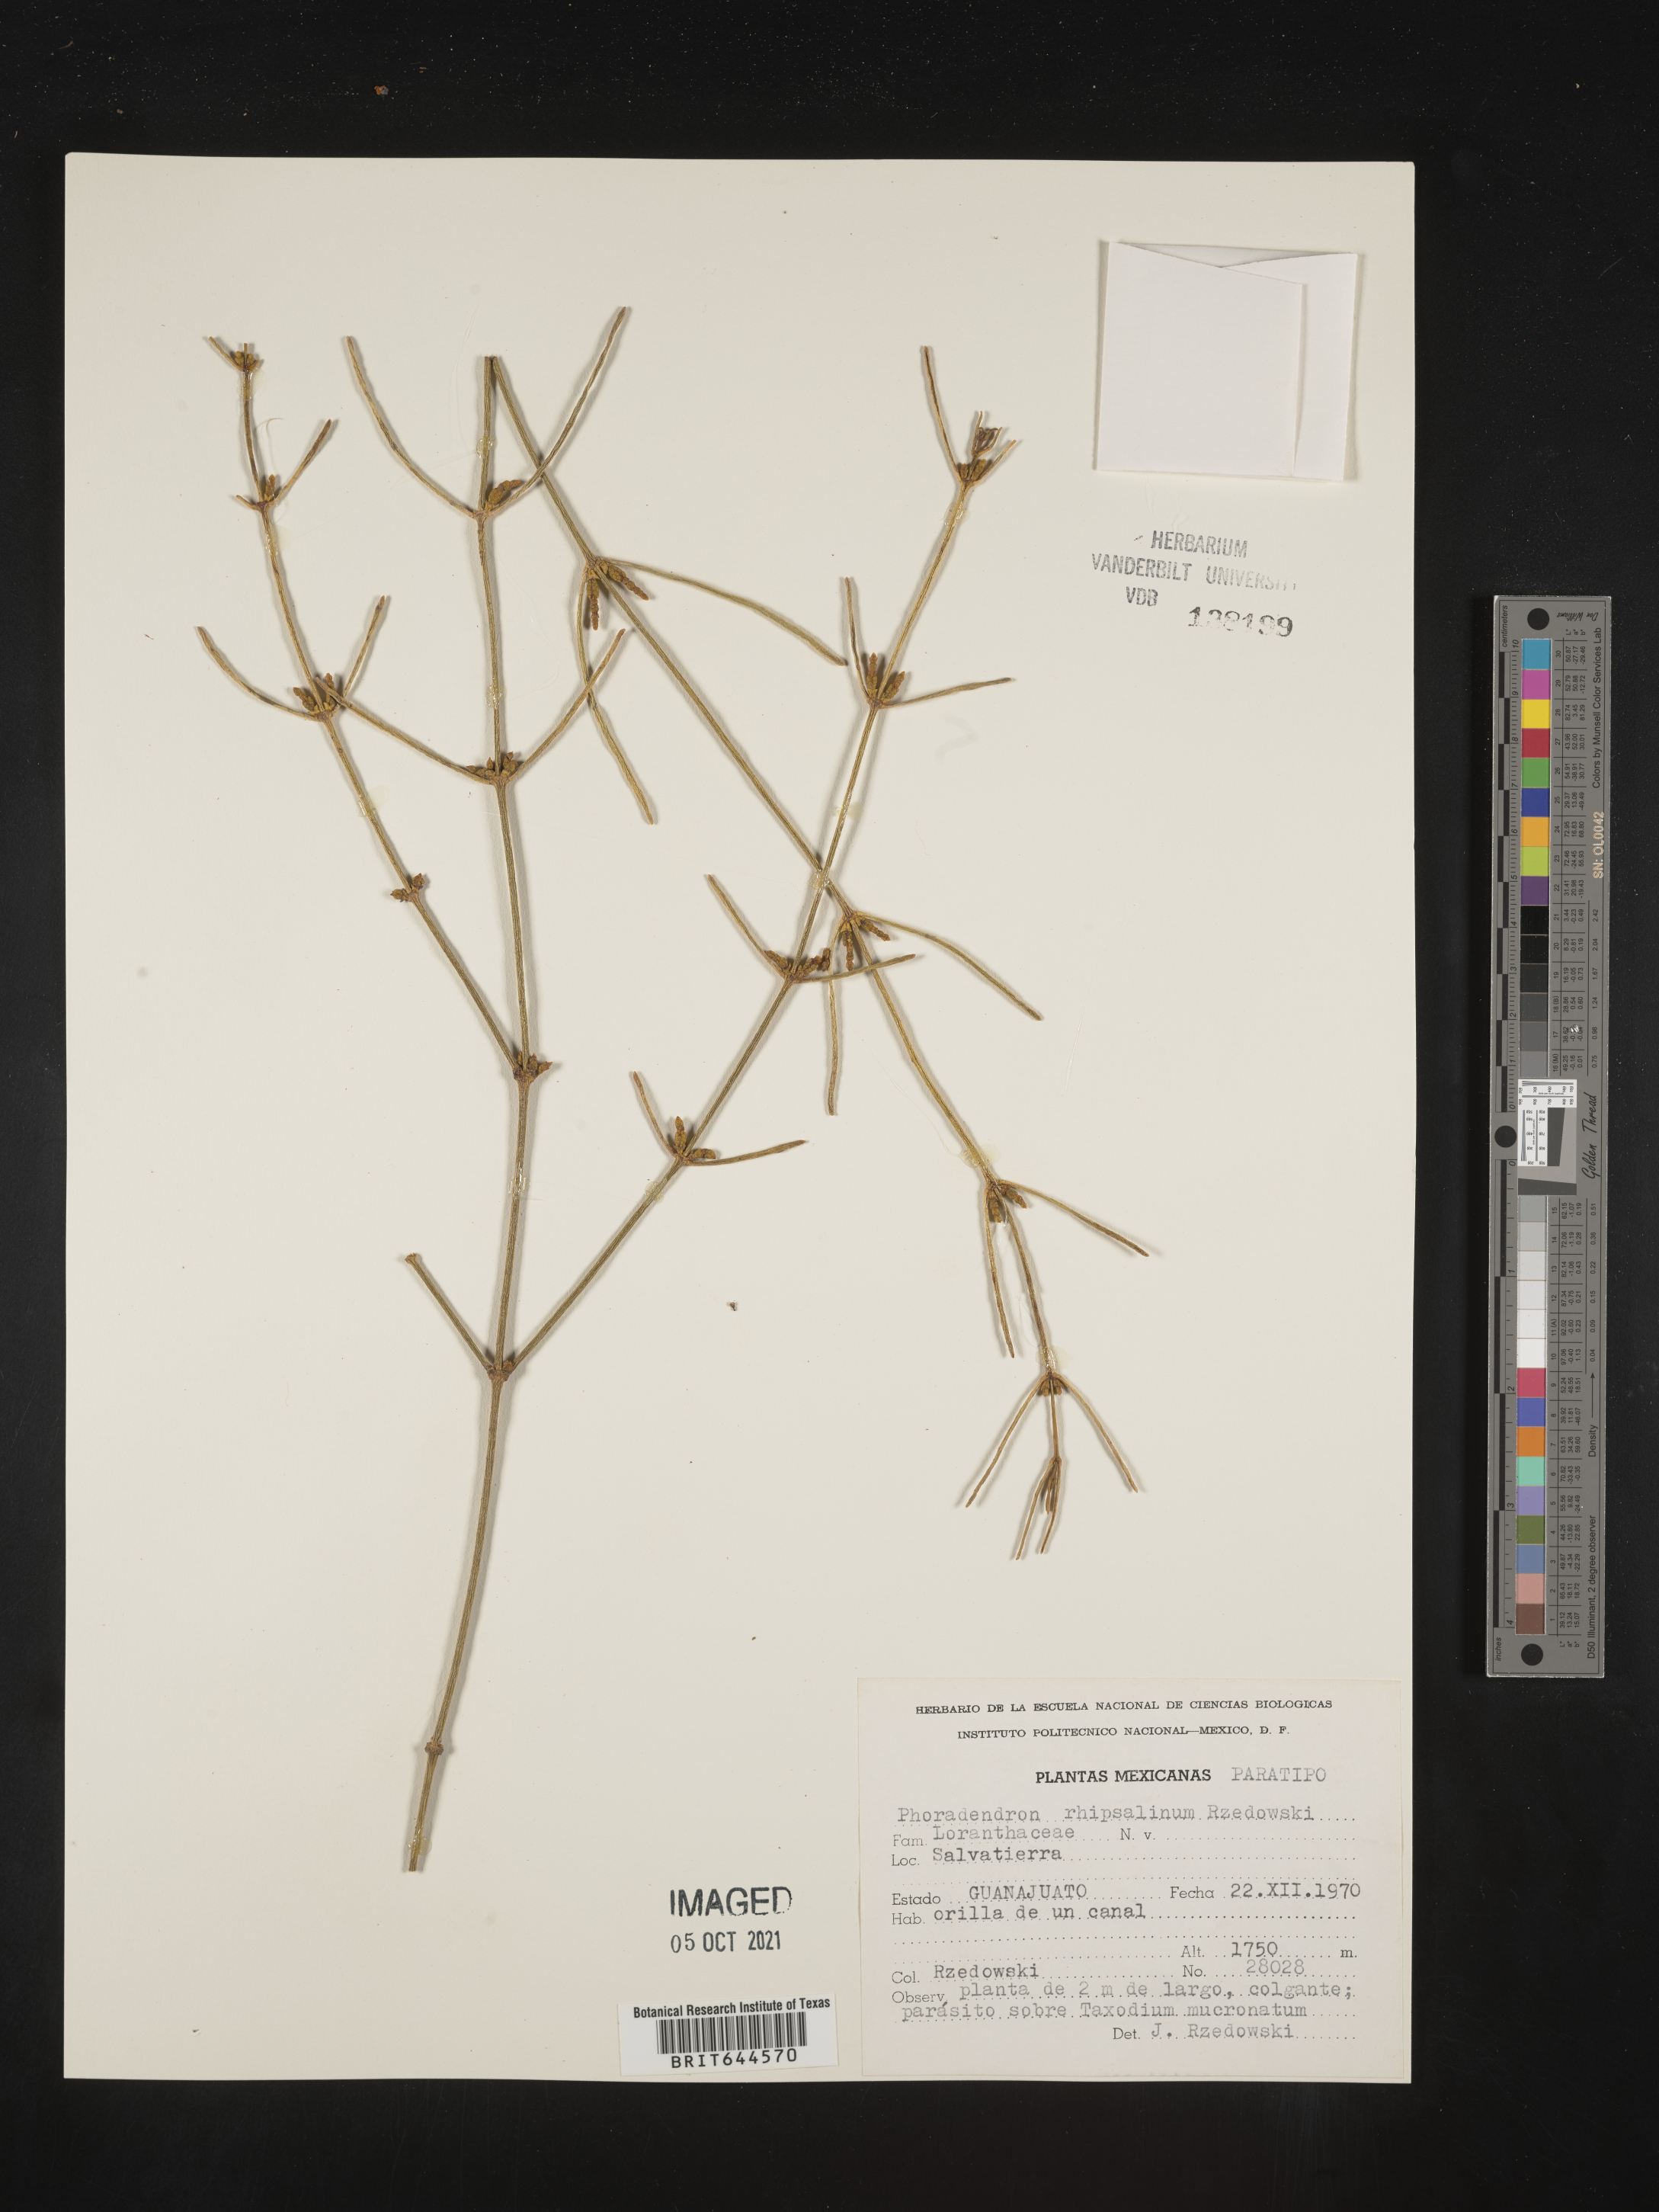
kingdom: Plantae
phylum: Tracheophyta
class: Magnoliopsida
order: Santalales
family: Viscaceae
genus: Phoradendron
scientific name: Phoradendron
